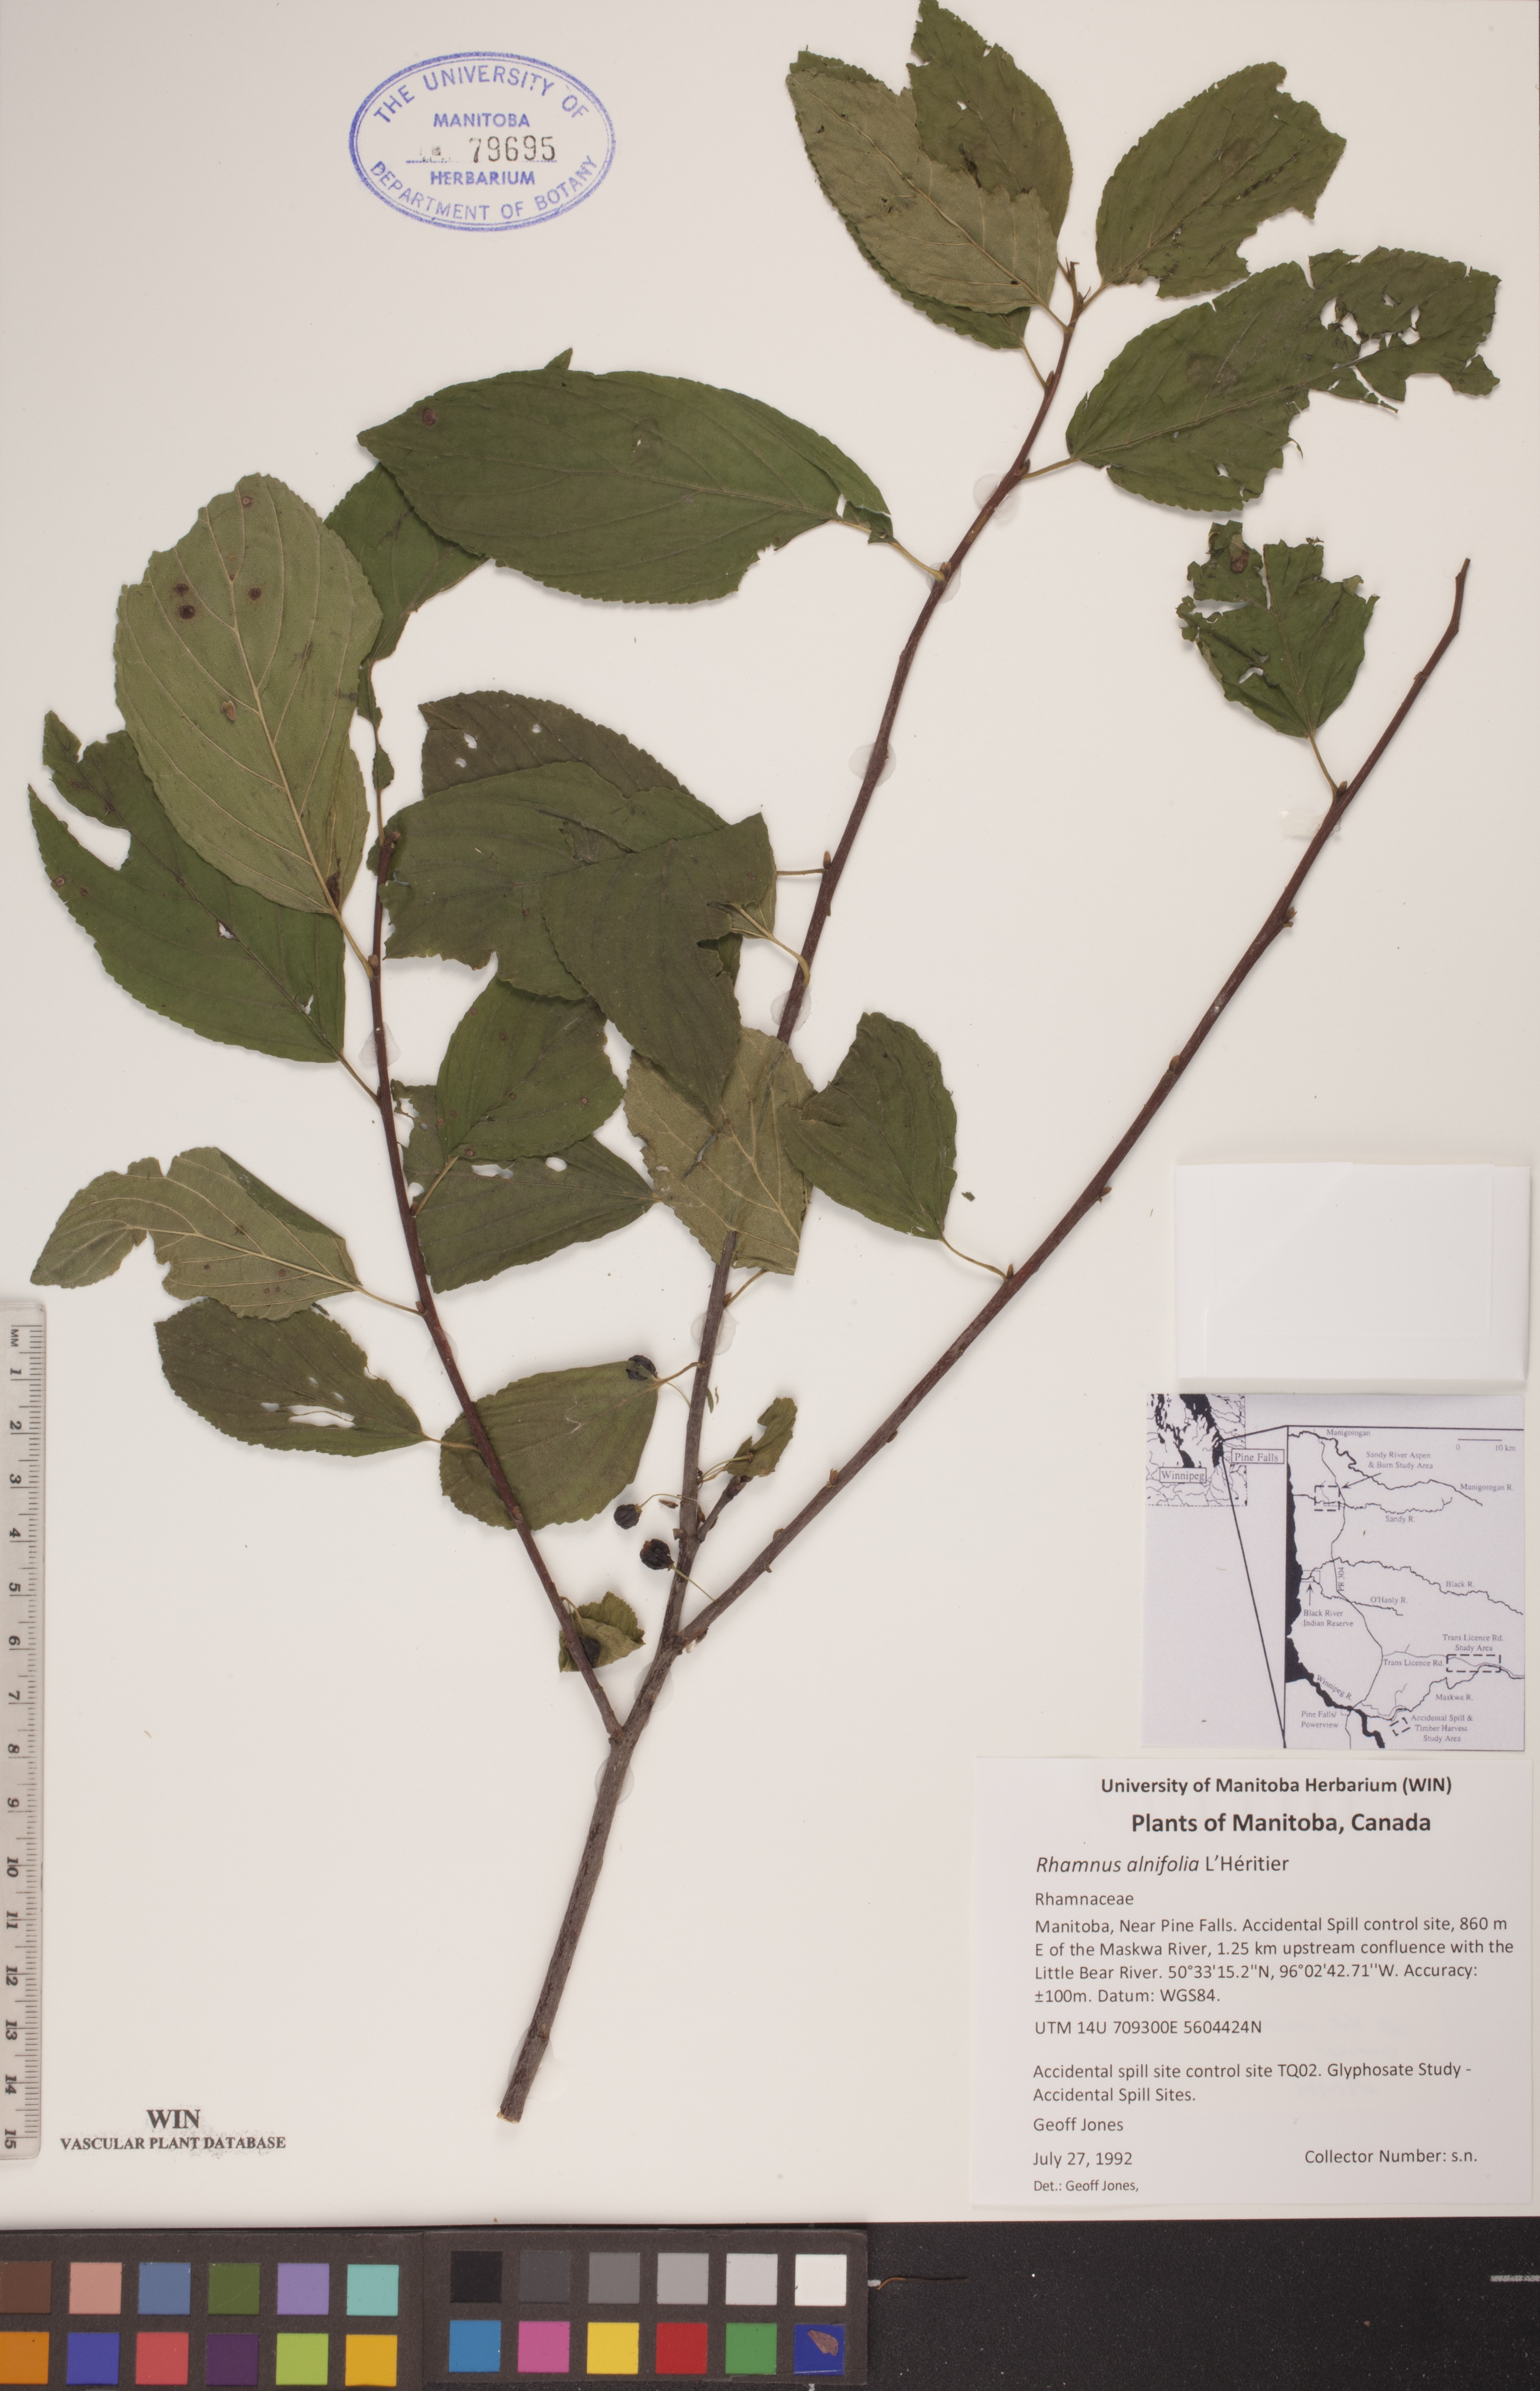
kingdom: Plantae
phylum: Tracheophyta
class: Magnoliopsida
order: Rosales
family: Rhamnaceae
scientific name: Rhamnaceae
